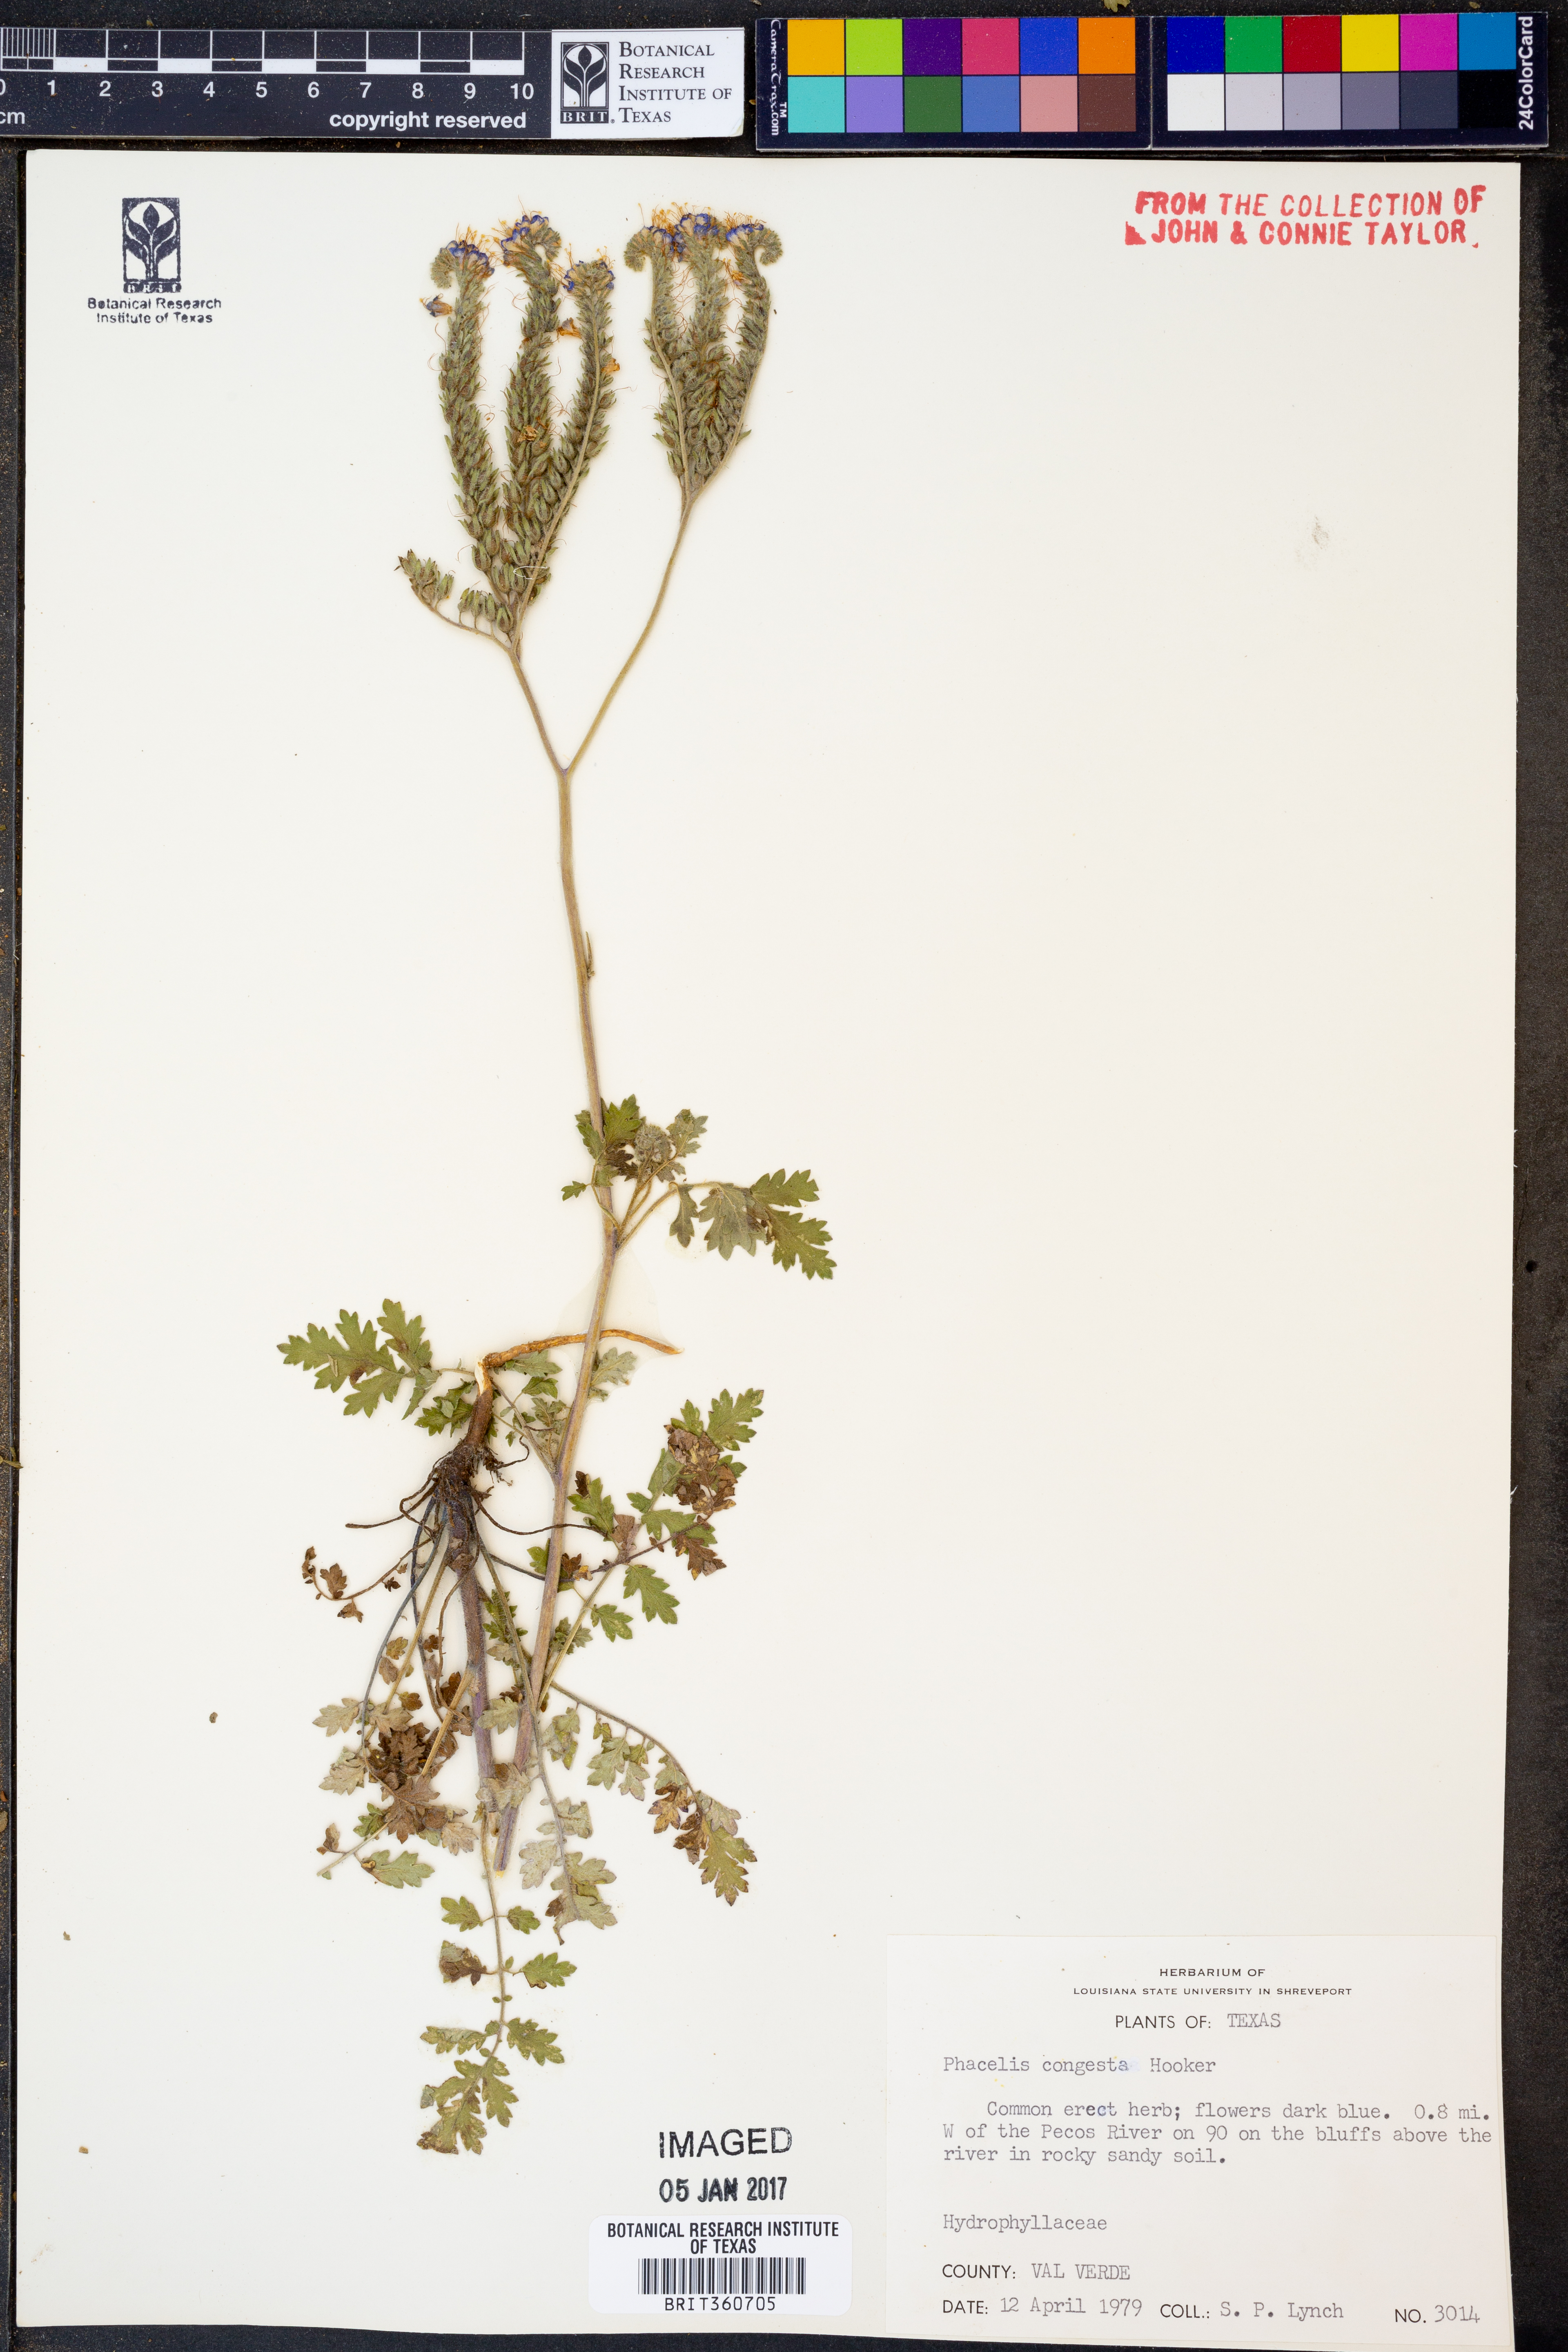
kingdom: Plantae
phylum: Tracheophyta
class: Magnoliopsida
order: Boraginales
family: Hydrophyllaceae
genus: Phacelia
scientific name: Phacelia congesta
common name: Blue curls
